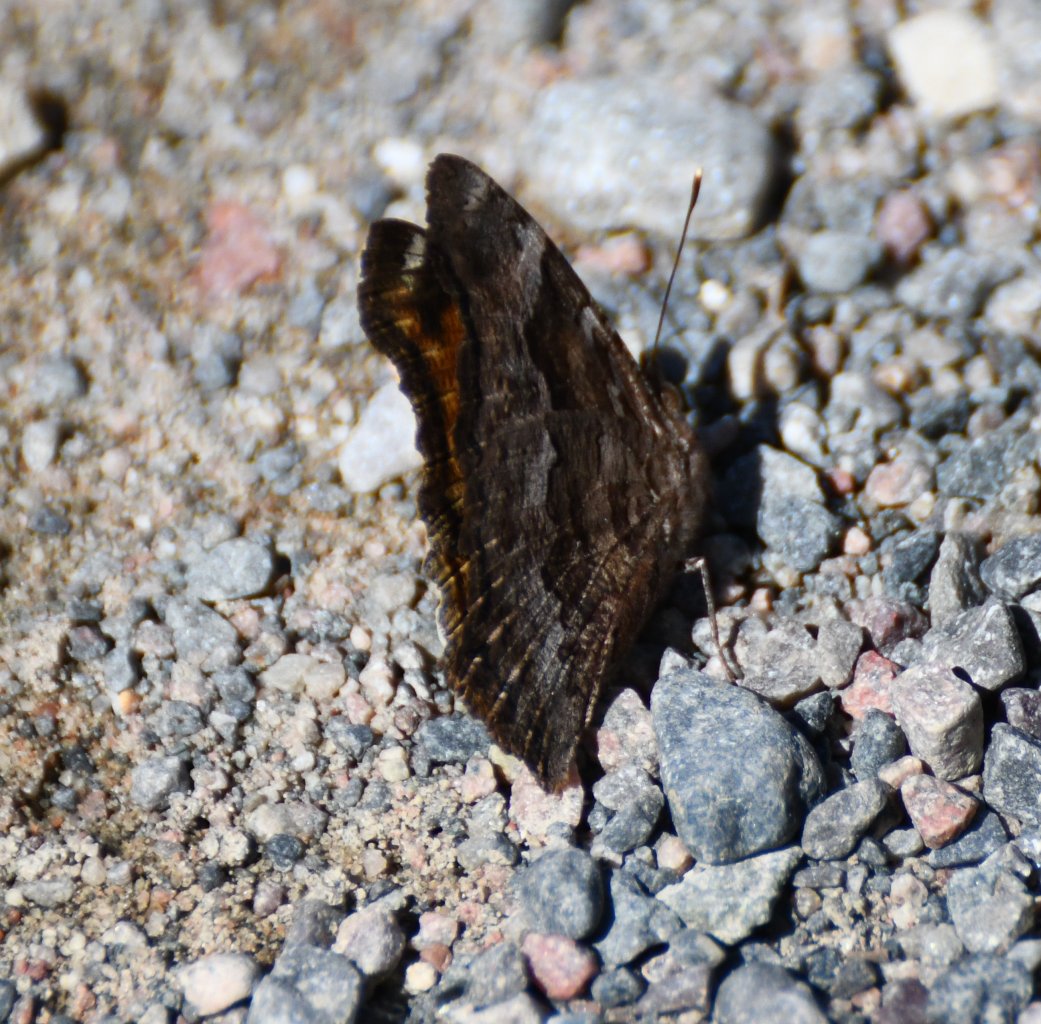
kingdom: Animalia
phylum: Arthropoda
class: Insecta
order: Lepidoptera
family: Nymphalidae
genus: Polygonia
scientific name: Polygonia vaualbum
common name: Compton Tortoiseshell
